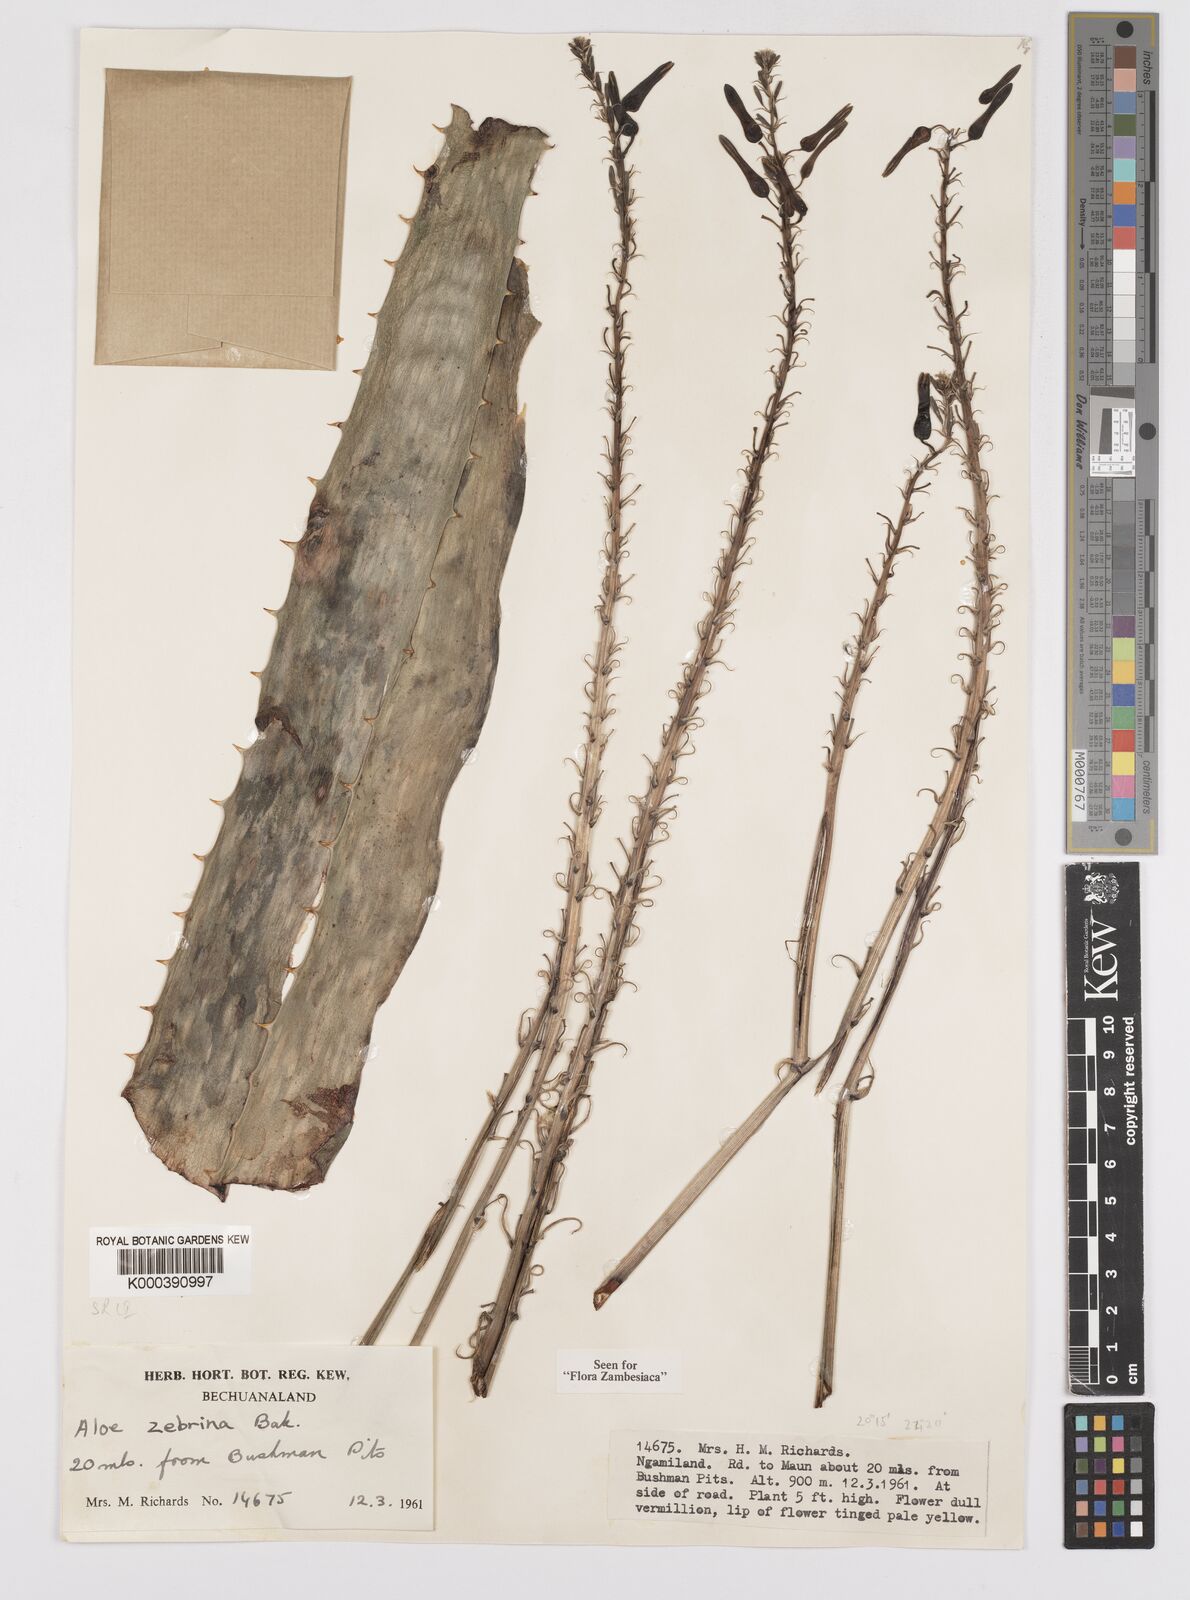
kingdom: Plantae
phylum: Tracheophyta
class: Liliopsida
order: Asparagales
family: Asphodelaceae
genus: Aloe
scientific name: Aloe zebrina
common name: Zebra-leaf aloe
